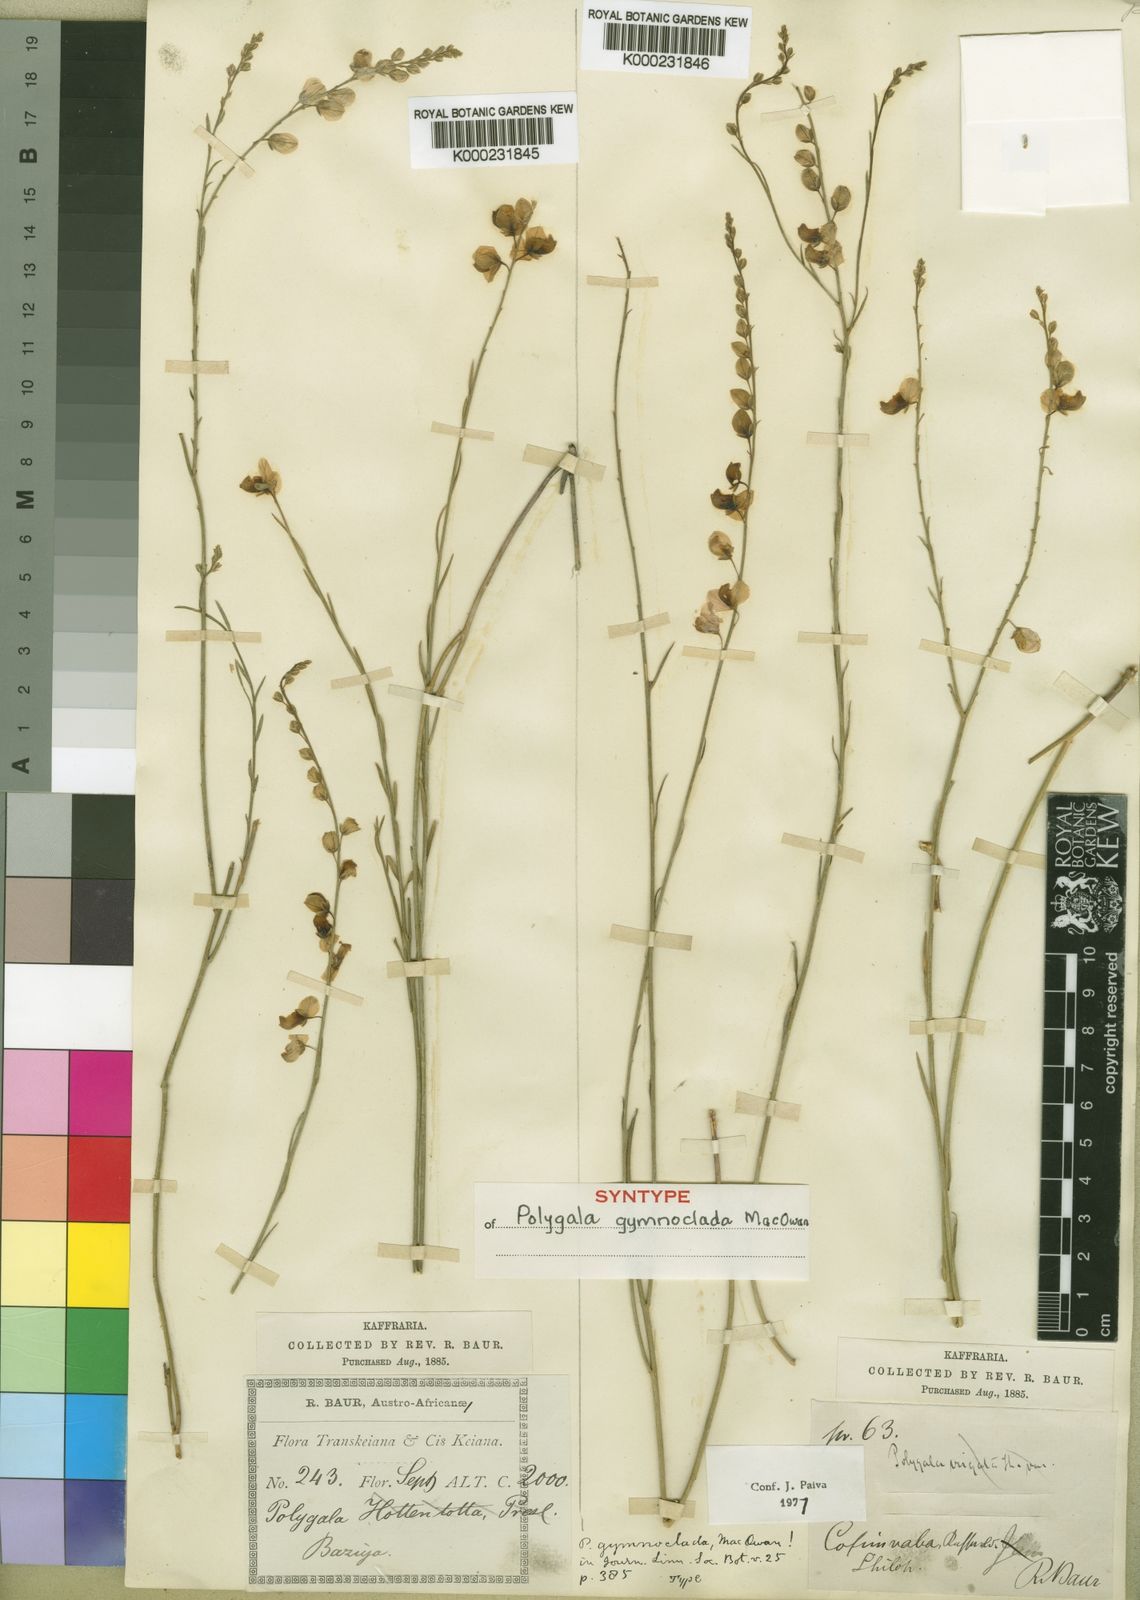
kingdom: Plantae
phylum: Tracheophyta
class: Magnoliopsida
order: Fabales
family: Polygalaceae
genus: Polygala
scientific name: Polygala gymnoclada
